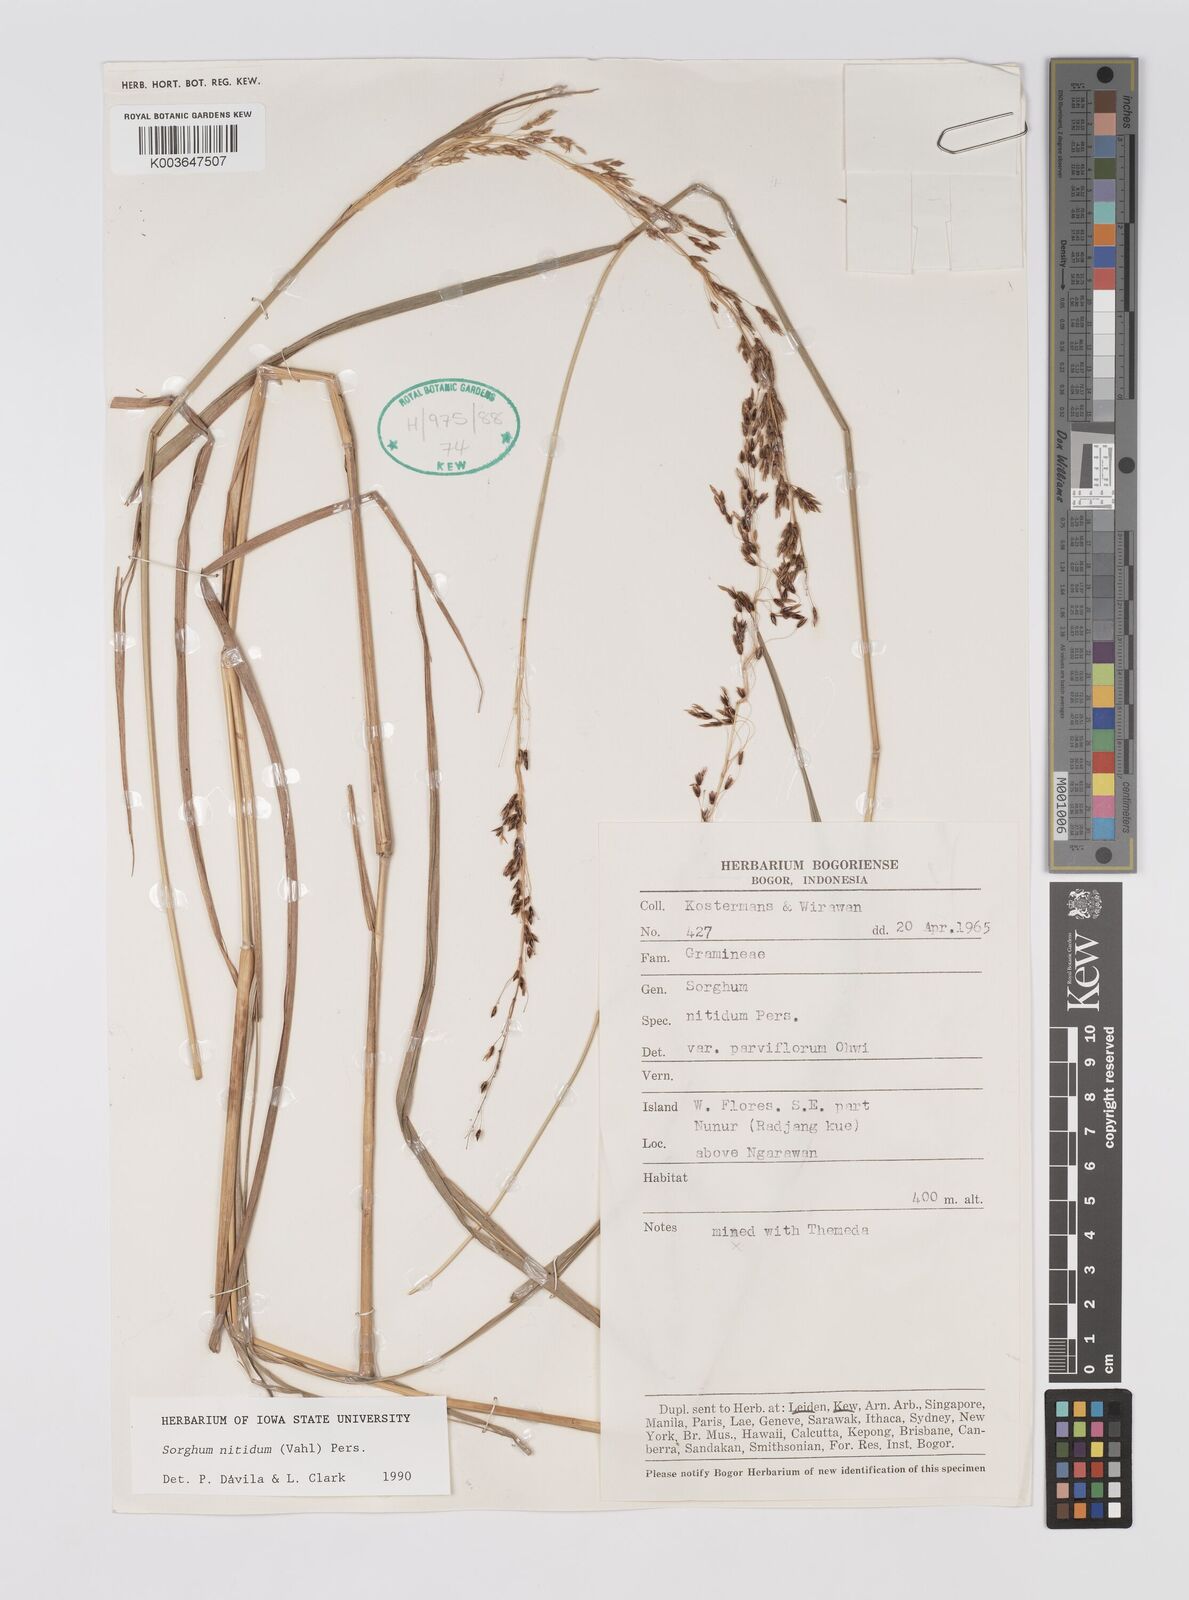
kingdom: Plantae
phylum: Tracheophyta
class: Liliopsida
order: Poales
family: Poaceae
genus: Sorghum
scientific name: Sorghum nitidum
